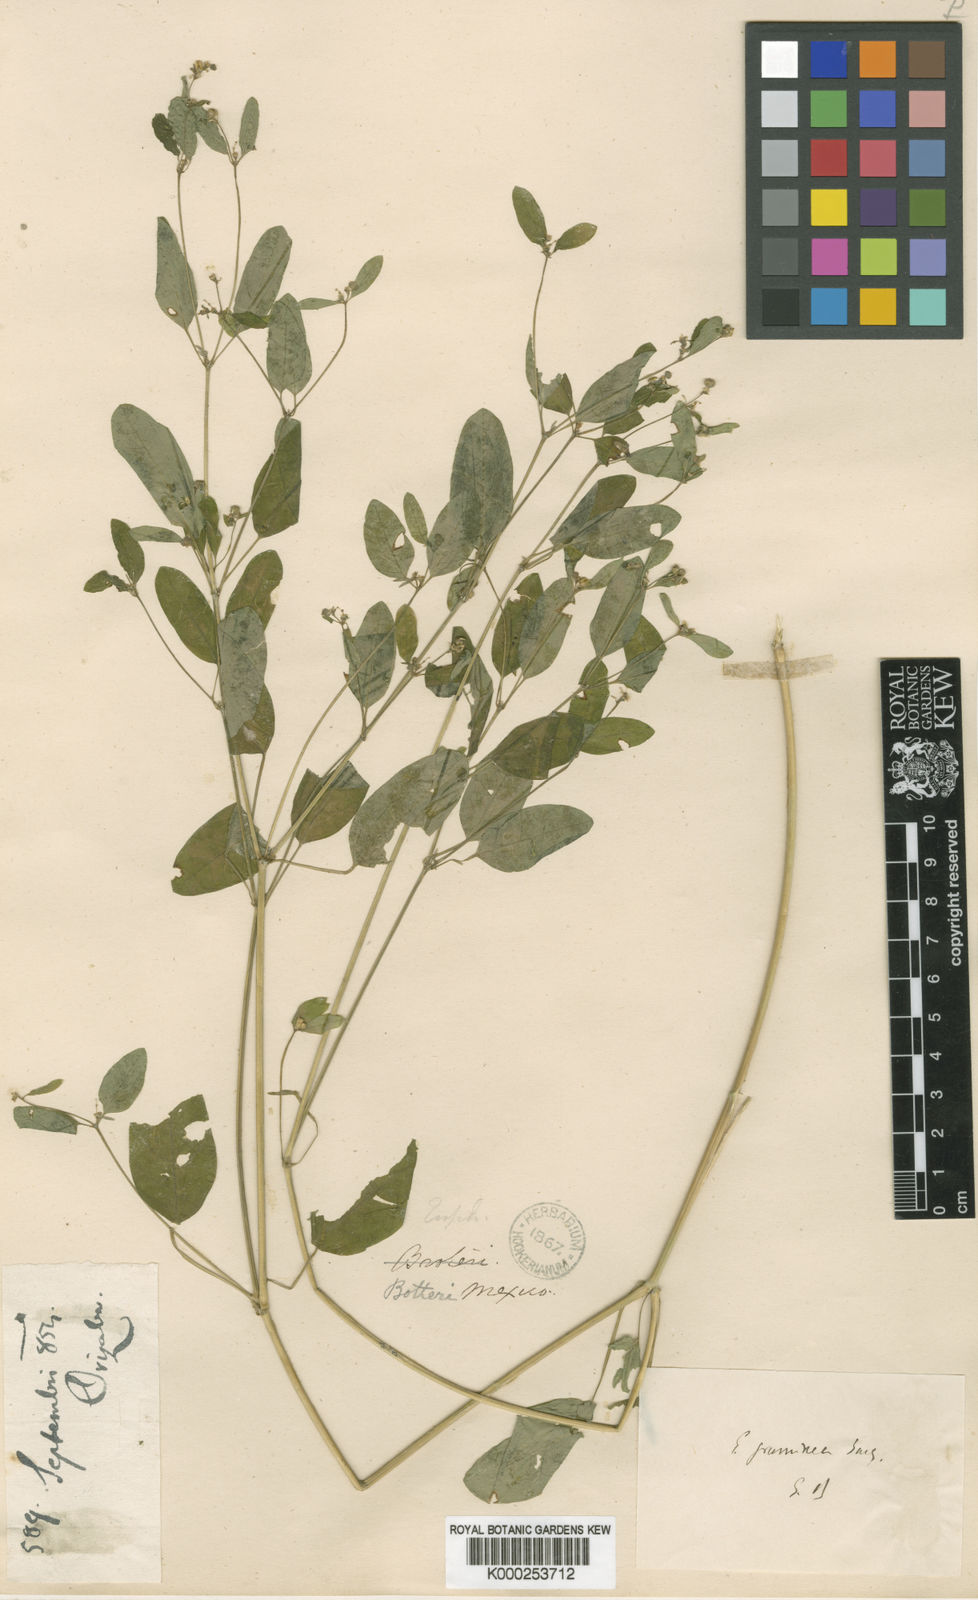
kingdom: Plantae
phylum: Tracheophyta
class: Magnoliopsida
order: Malpighiales
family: Euphorbiaceae
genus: Euphorbia
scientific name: Euphorbia graminea
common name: Grassleaf spurge
